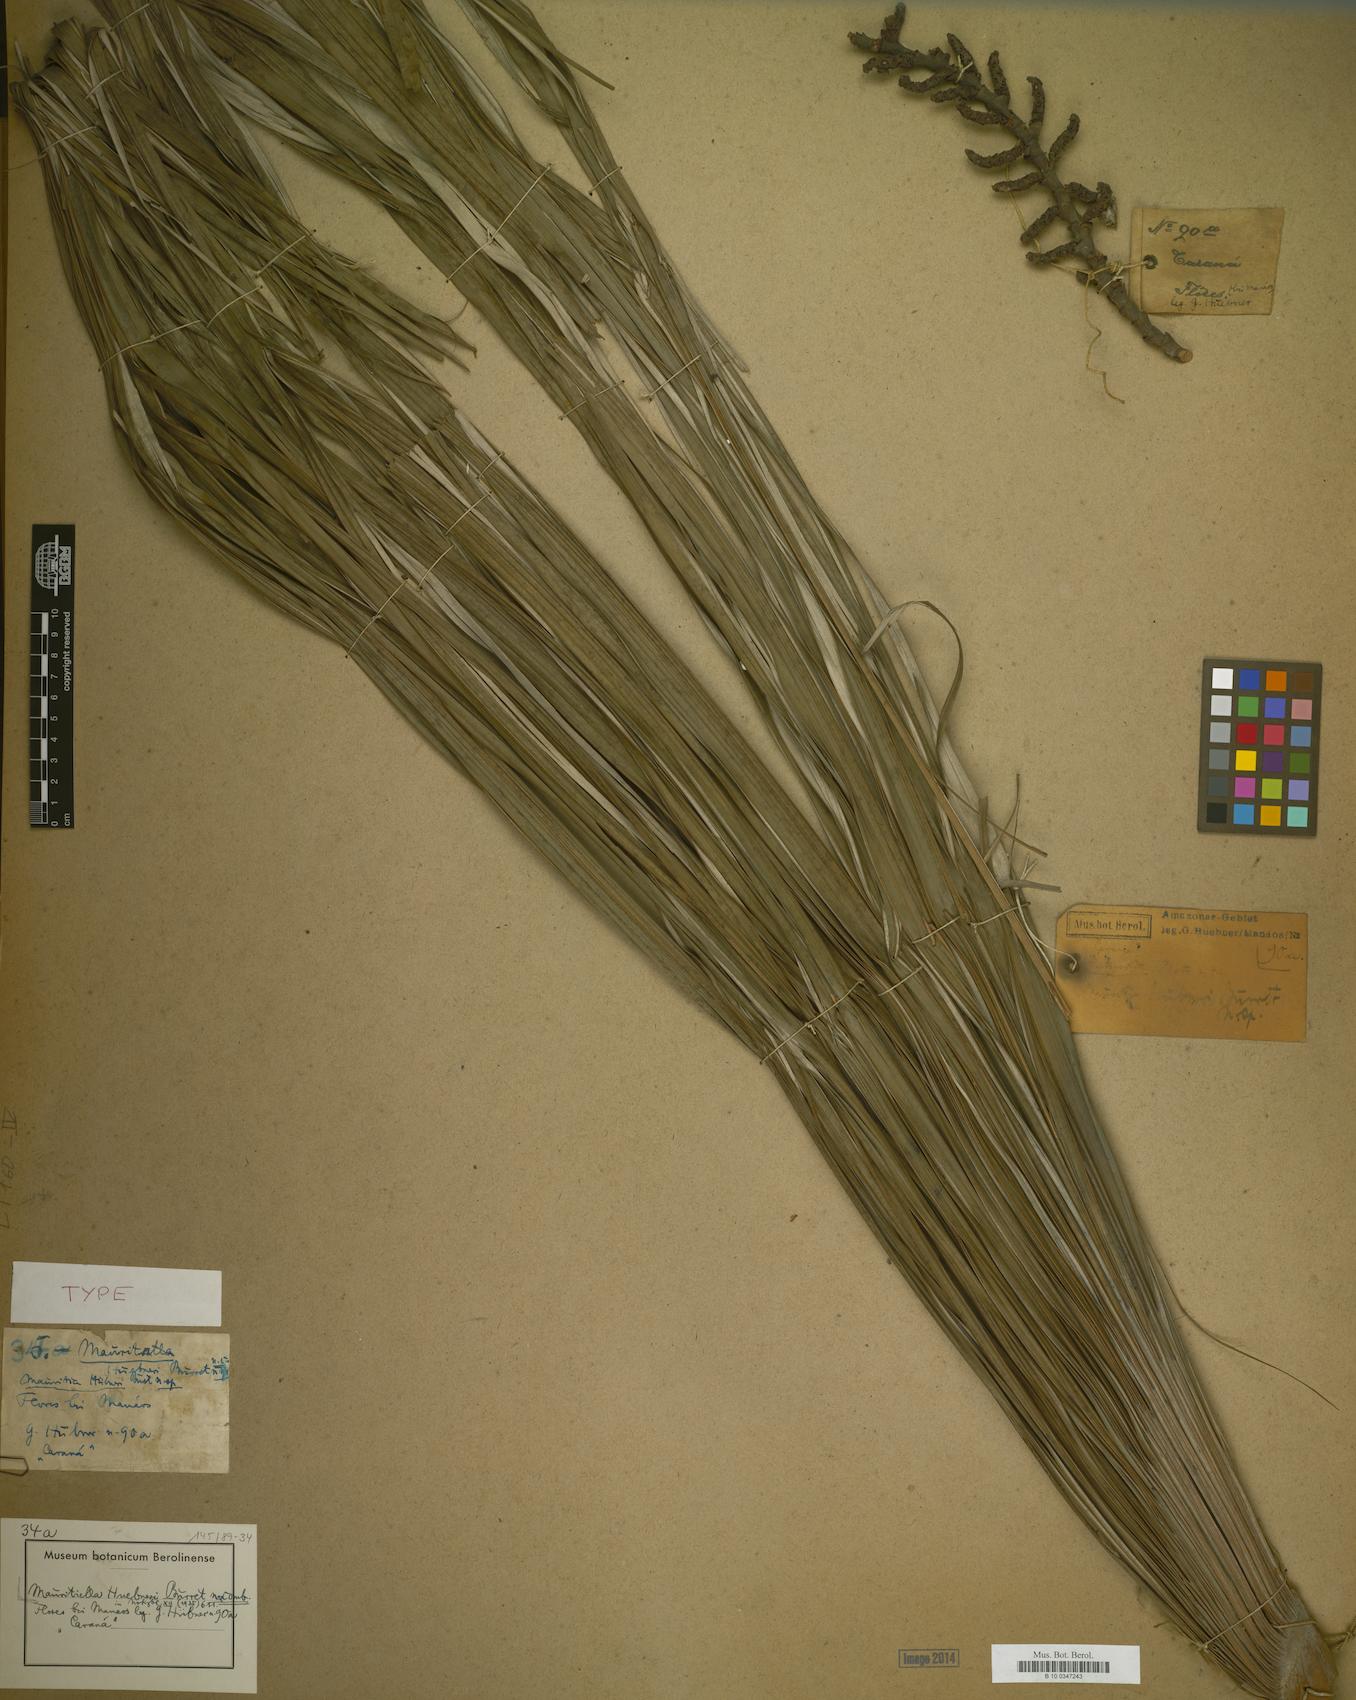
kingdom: Plantae
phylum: Tracheophyta
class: Liliopsida
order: Arecales
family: Arecaceae
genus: Mauritiella
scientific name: Mauritiella armata
